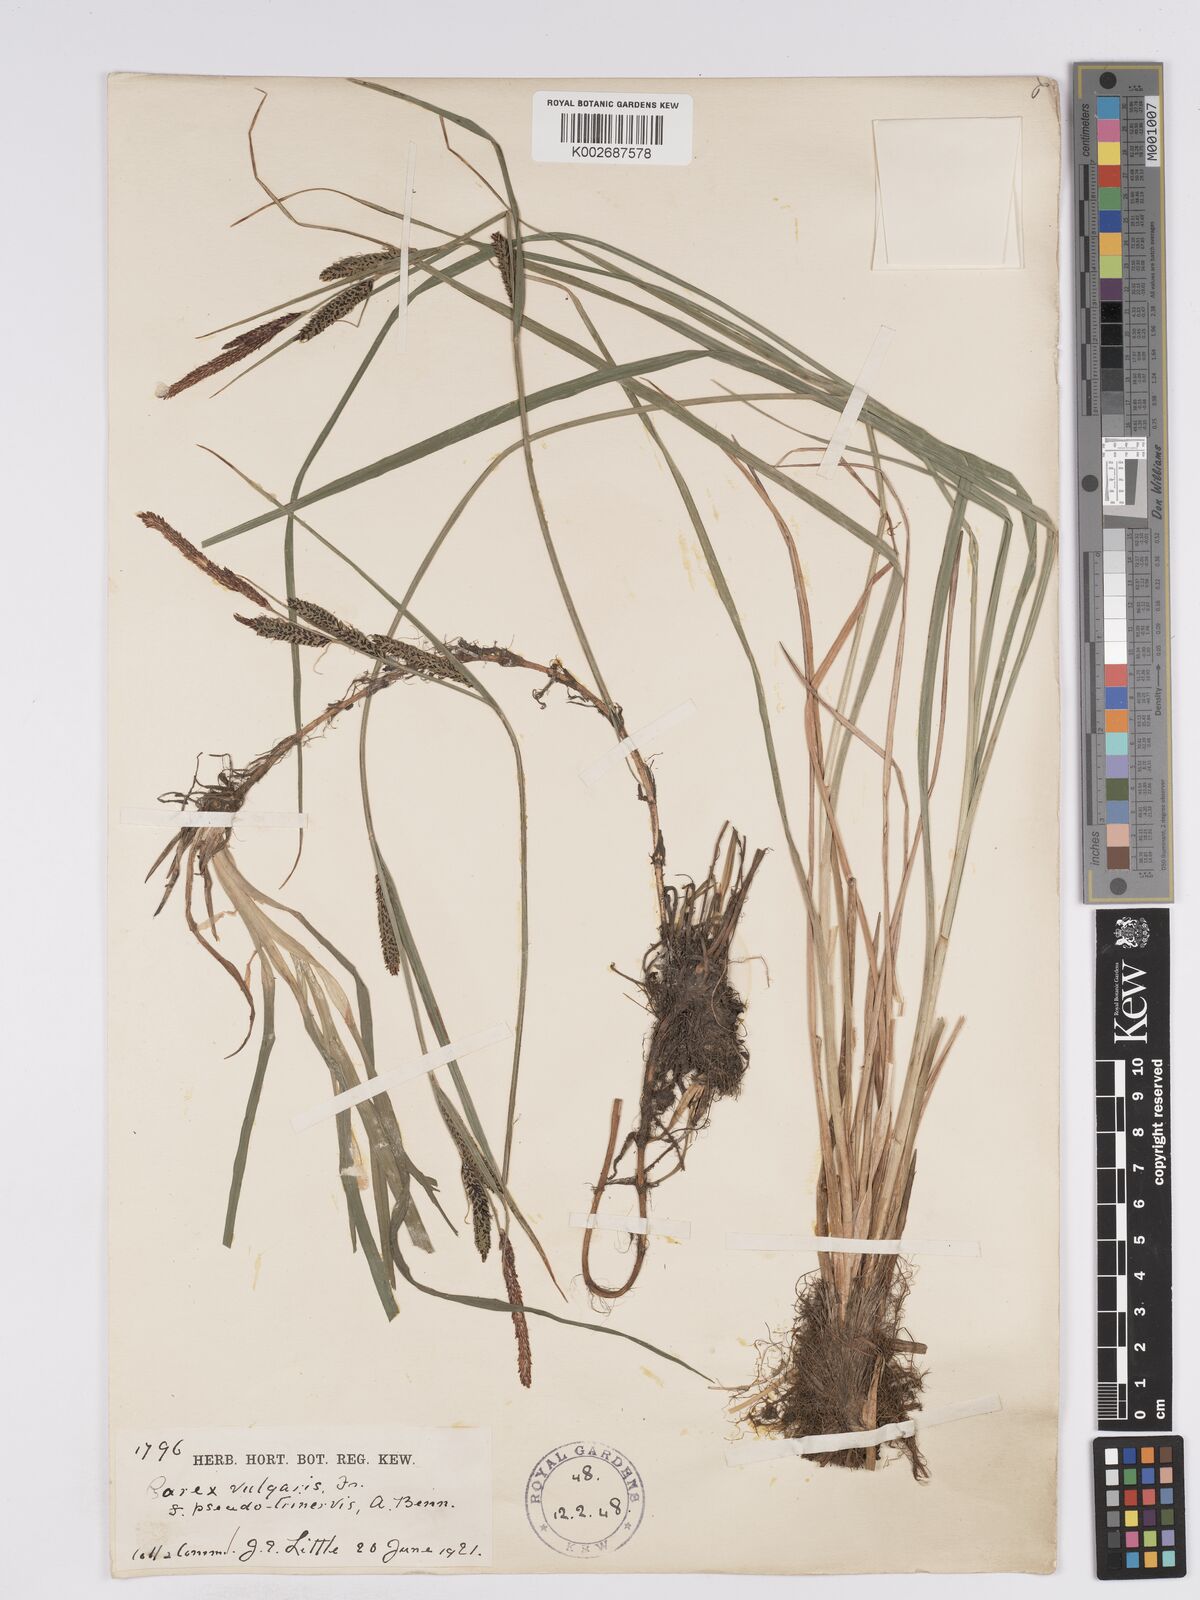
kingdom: Plantae
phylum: Tracheophyta
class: Liliopsida
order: Poales
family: Cyperaceae
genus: Carex
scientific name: Carex nigra
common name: Common sedge
